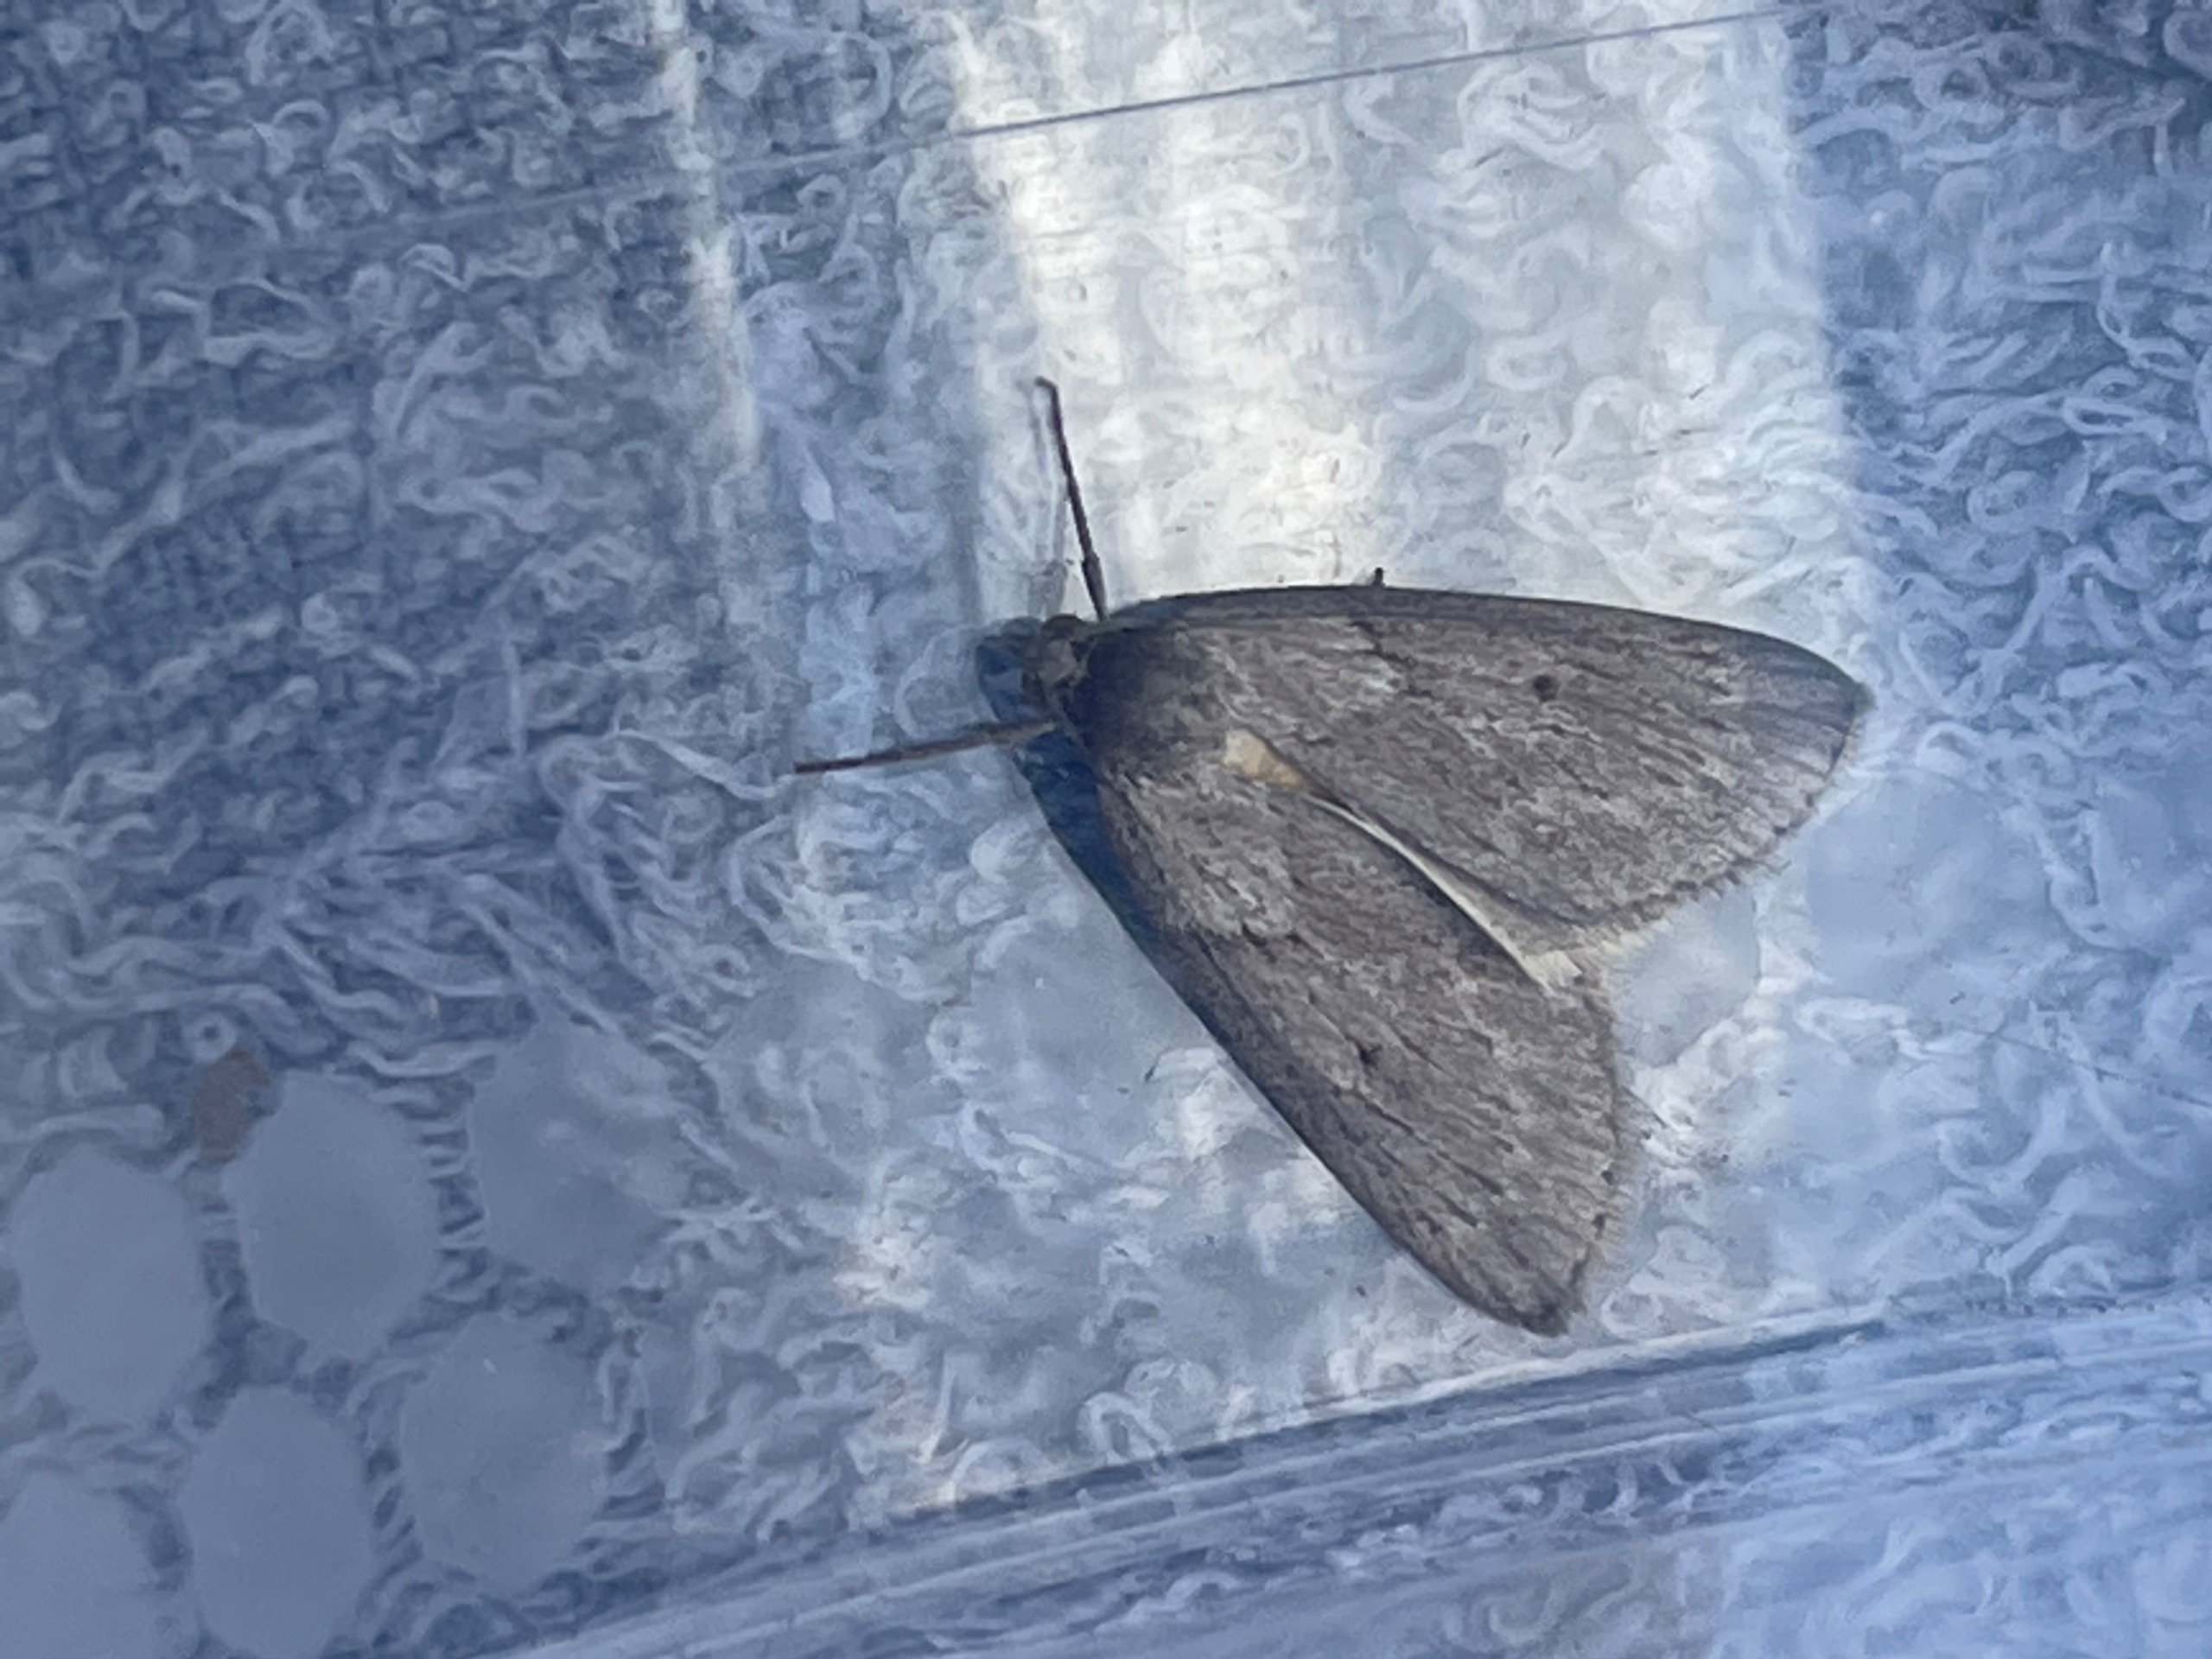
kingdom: Animalia
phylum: Arthropoda
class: Insecta
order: Lepidoptera
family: Geometridae
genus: Pachycnemia
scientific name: Pachycnemia hippocastanaria
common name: Mørk hedemåler
